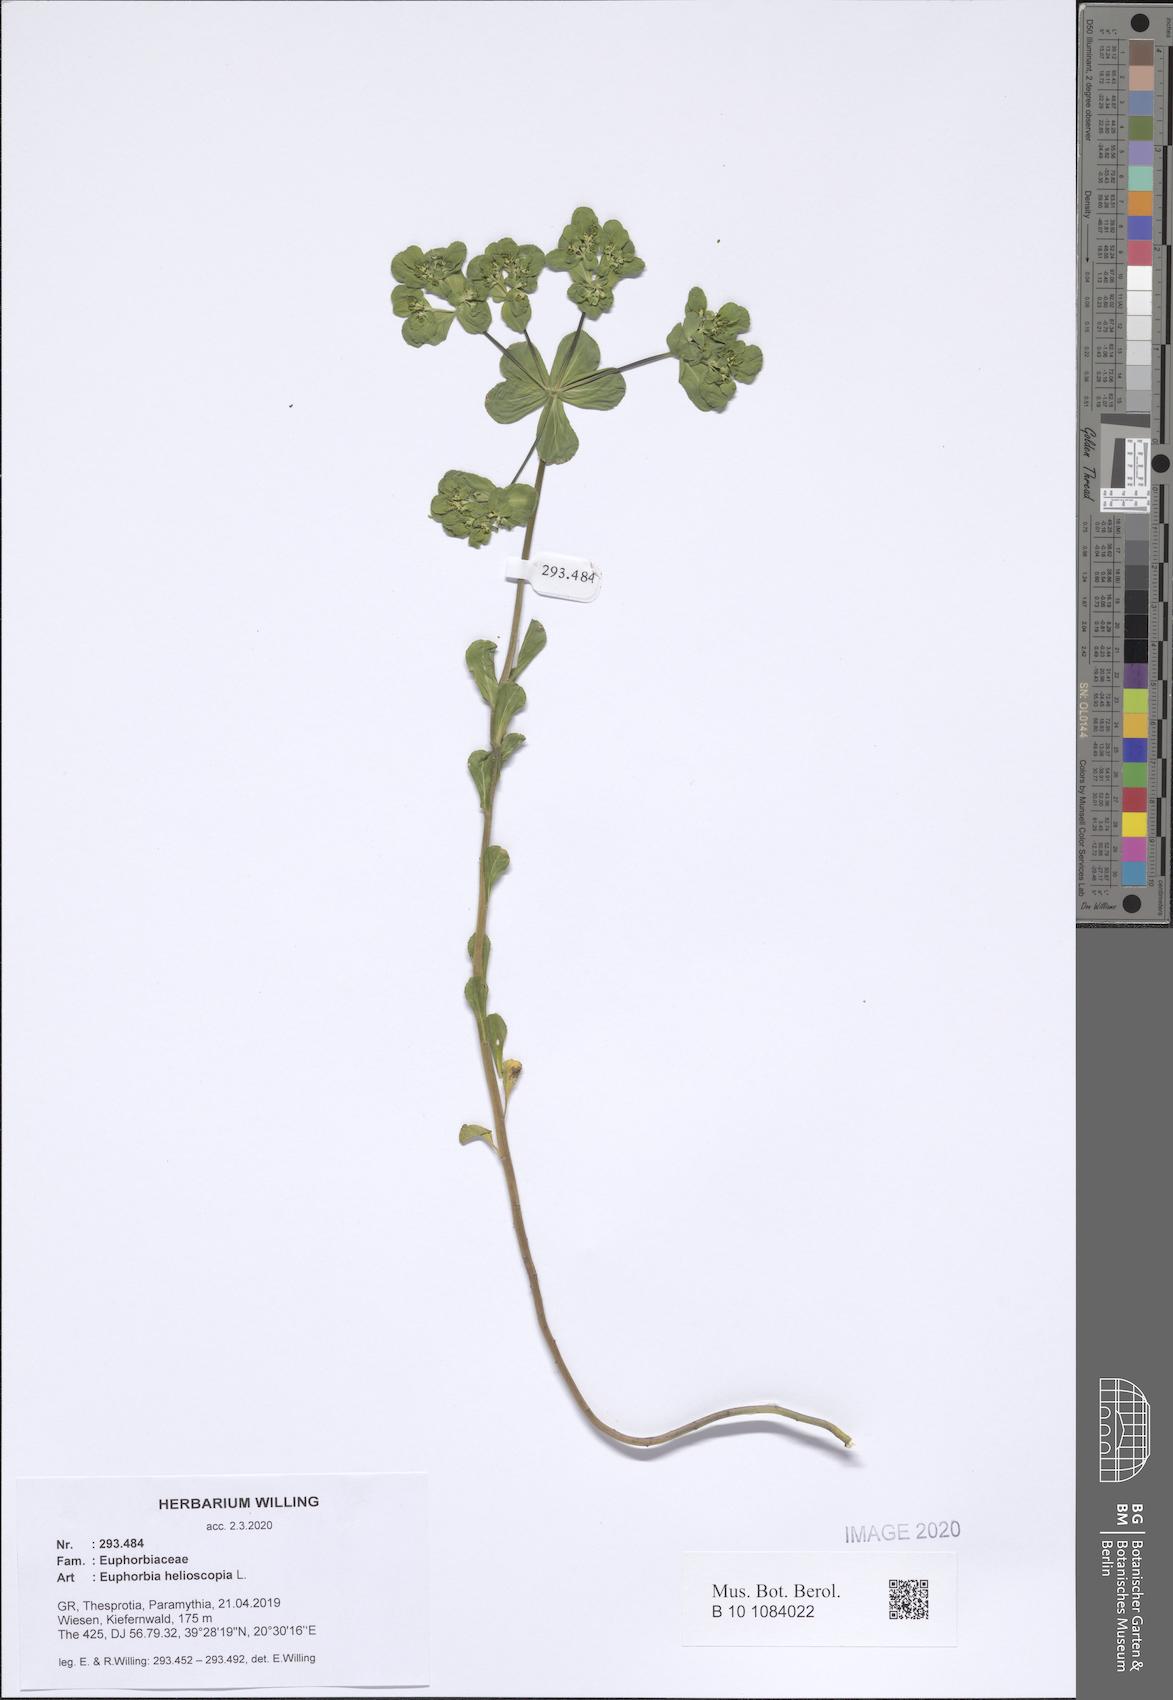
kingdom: Plantae
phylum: Tracheophyta
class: Magnoliopsida
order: Malpighiales
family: Euphorbiaceae
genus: Euphorbia
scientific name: Euphorbia helioscopia
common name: Sun spurge
